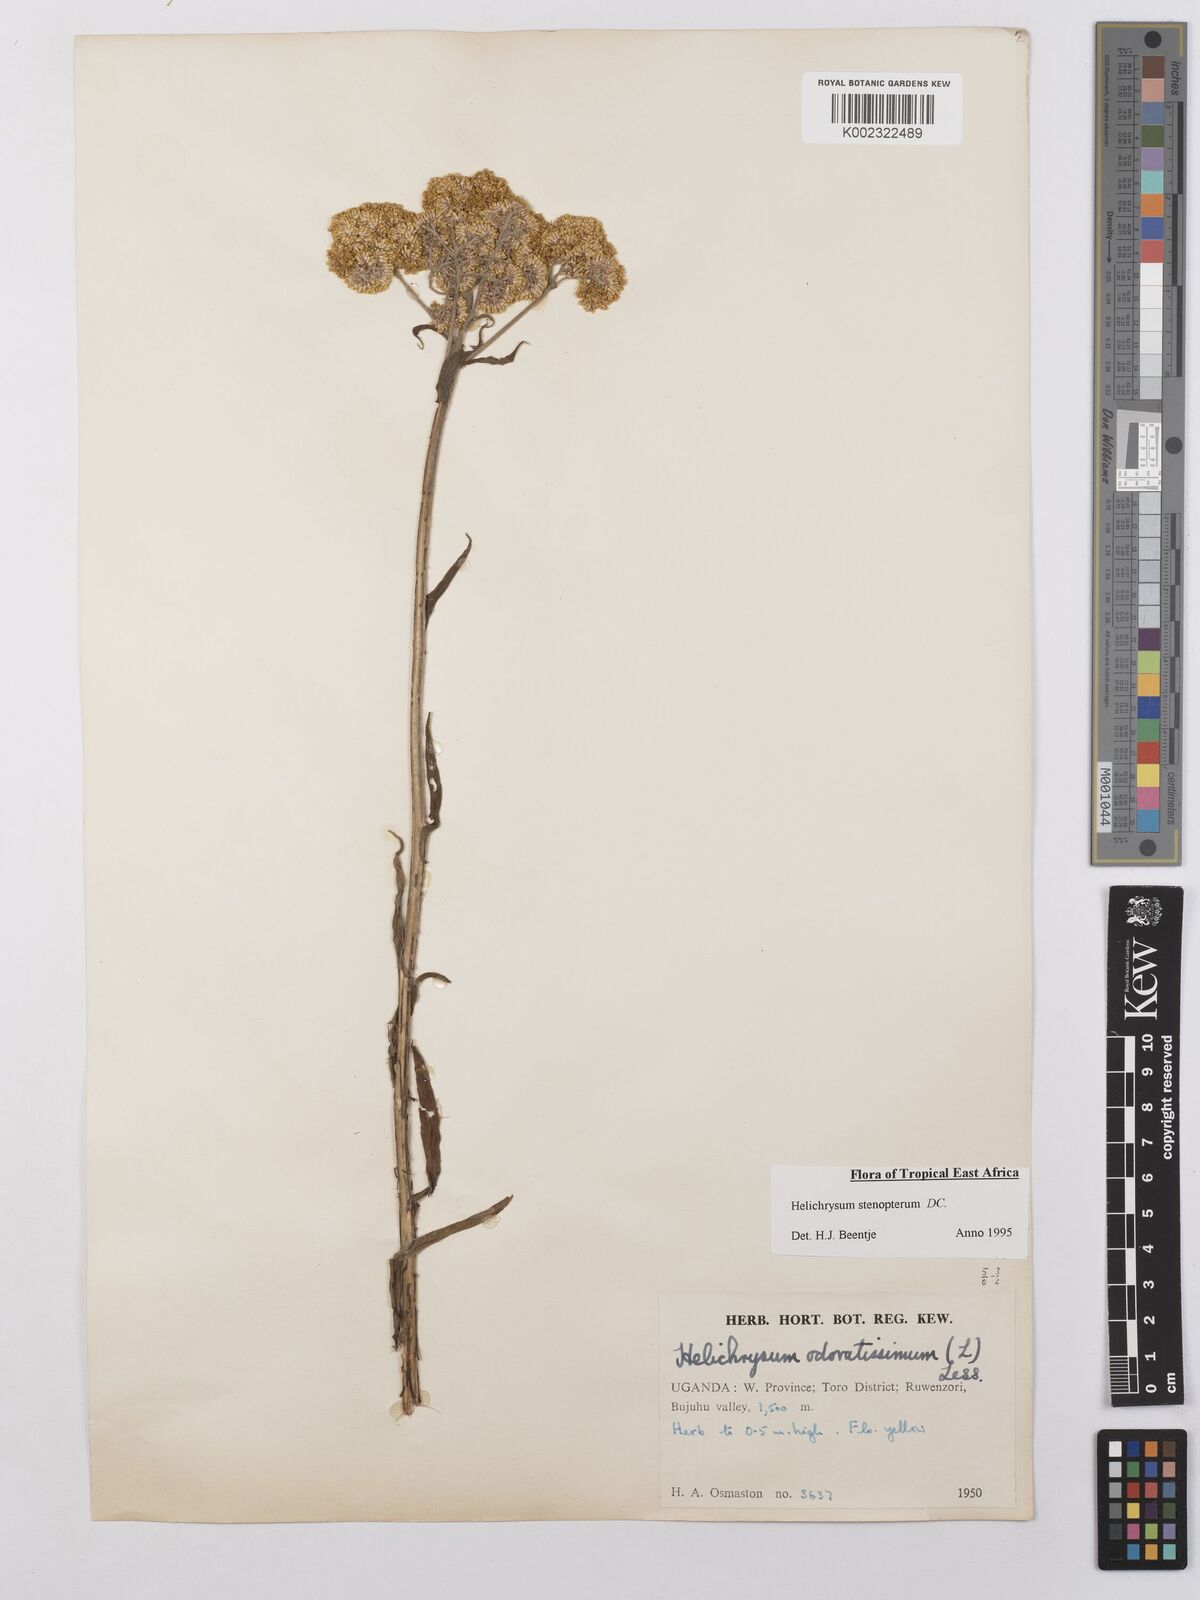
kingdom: Plantae
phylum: Tracheophyta
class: Magnoliopsida
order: Asterales
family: Asteraceae
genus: Helichrysum
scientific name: Helichrysum stenopterum
